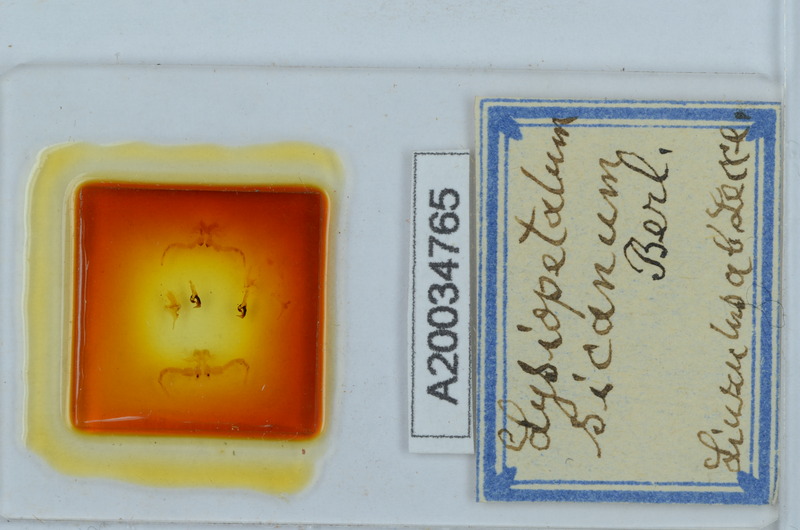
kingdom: Animalia
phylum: Arthropoda
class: Diplopoda
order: Callipodida
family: Schizopetalidae
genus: Acanthopetalum
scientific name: Acanthopetalum richii
